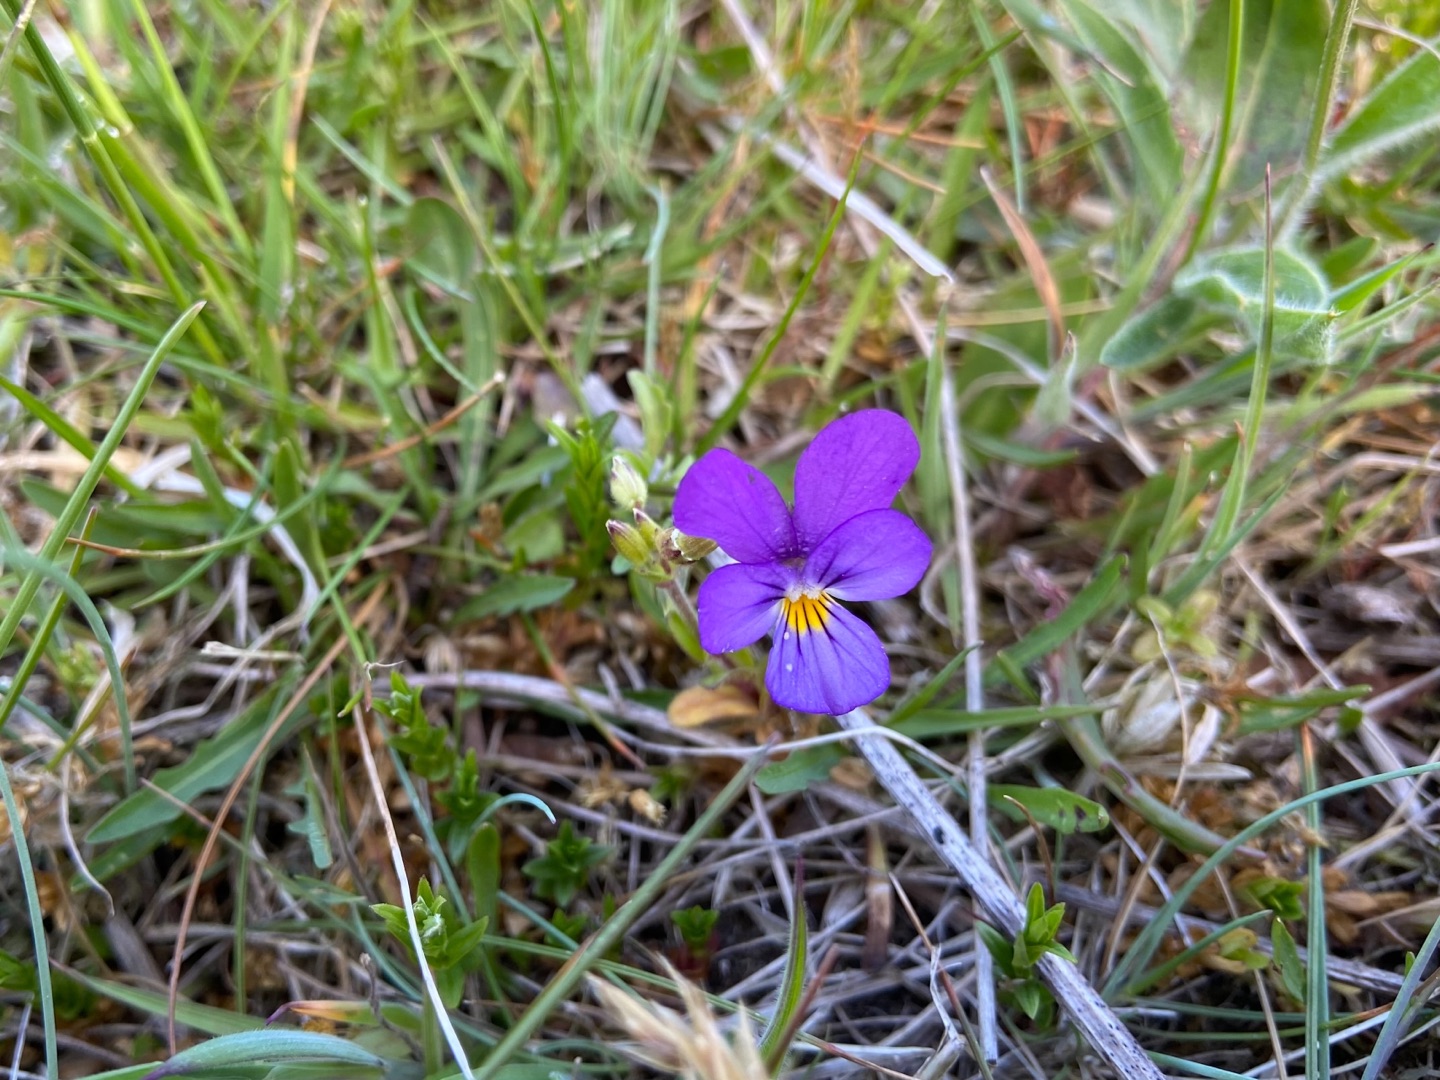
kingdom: Plantae
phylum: Tracheophyta
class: Magnoliopsida
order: Malpighiales
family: Violaceae
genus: Viola
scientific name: Viola tricolor
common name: Stedmoderblomst
